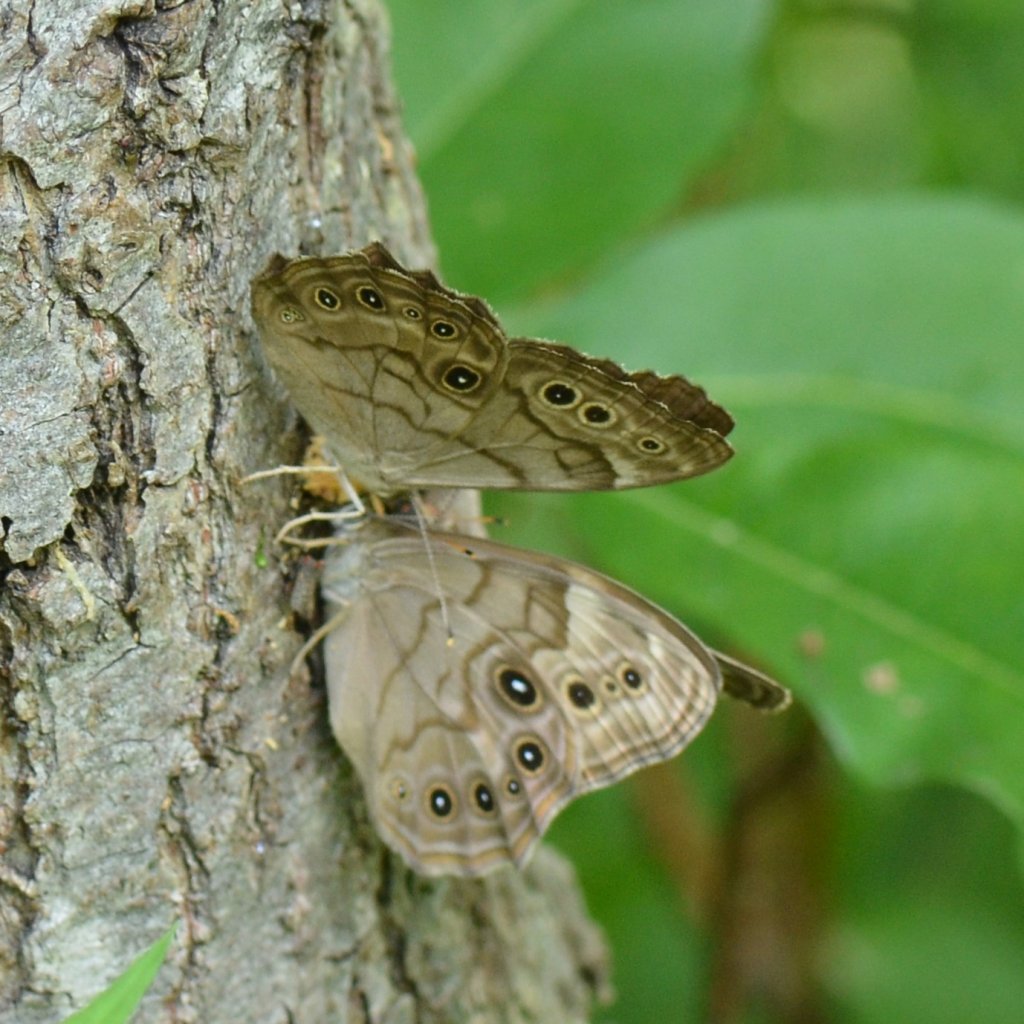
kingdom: Animalia
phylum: Arthropoda
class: Insecta
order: Lepidoptera
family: Nymphalidae
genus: Lethe
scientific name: Lethe anthedon
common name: Northern Pearly-Eye
